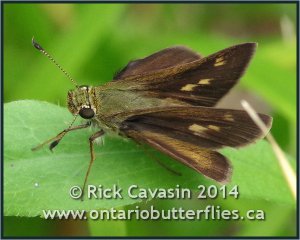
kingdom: Animalia
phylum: Arthropoda
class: Insecta
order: Lepidoptera
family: Hesperiidae
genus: Polites
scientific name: Polites egeremet
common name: Northern Broken-Dash
